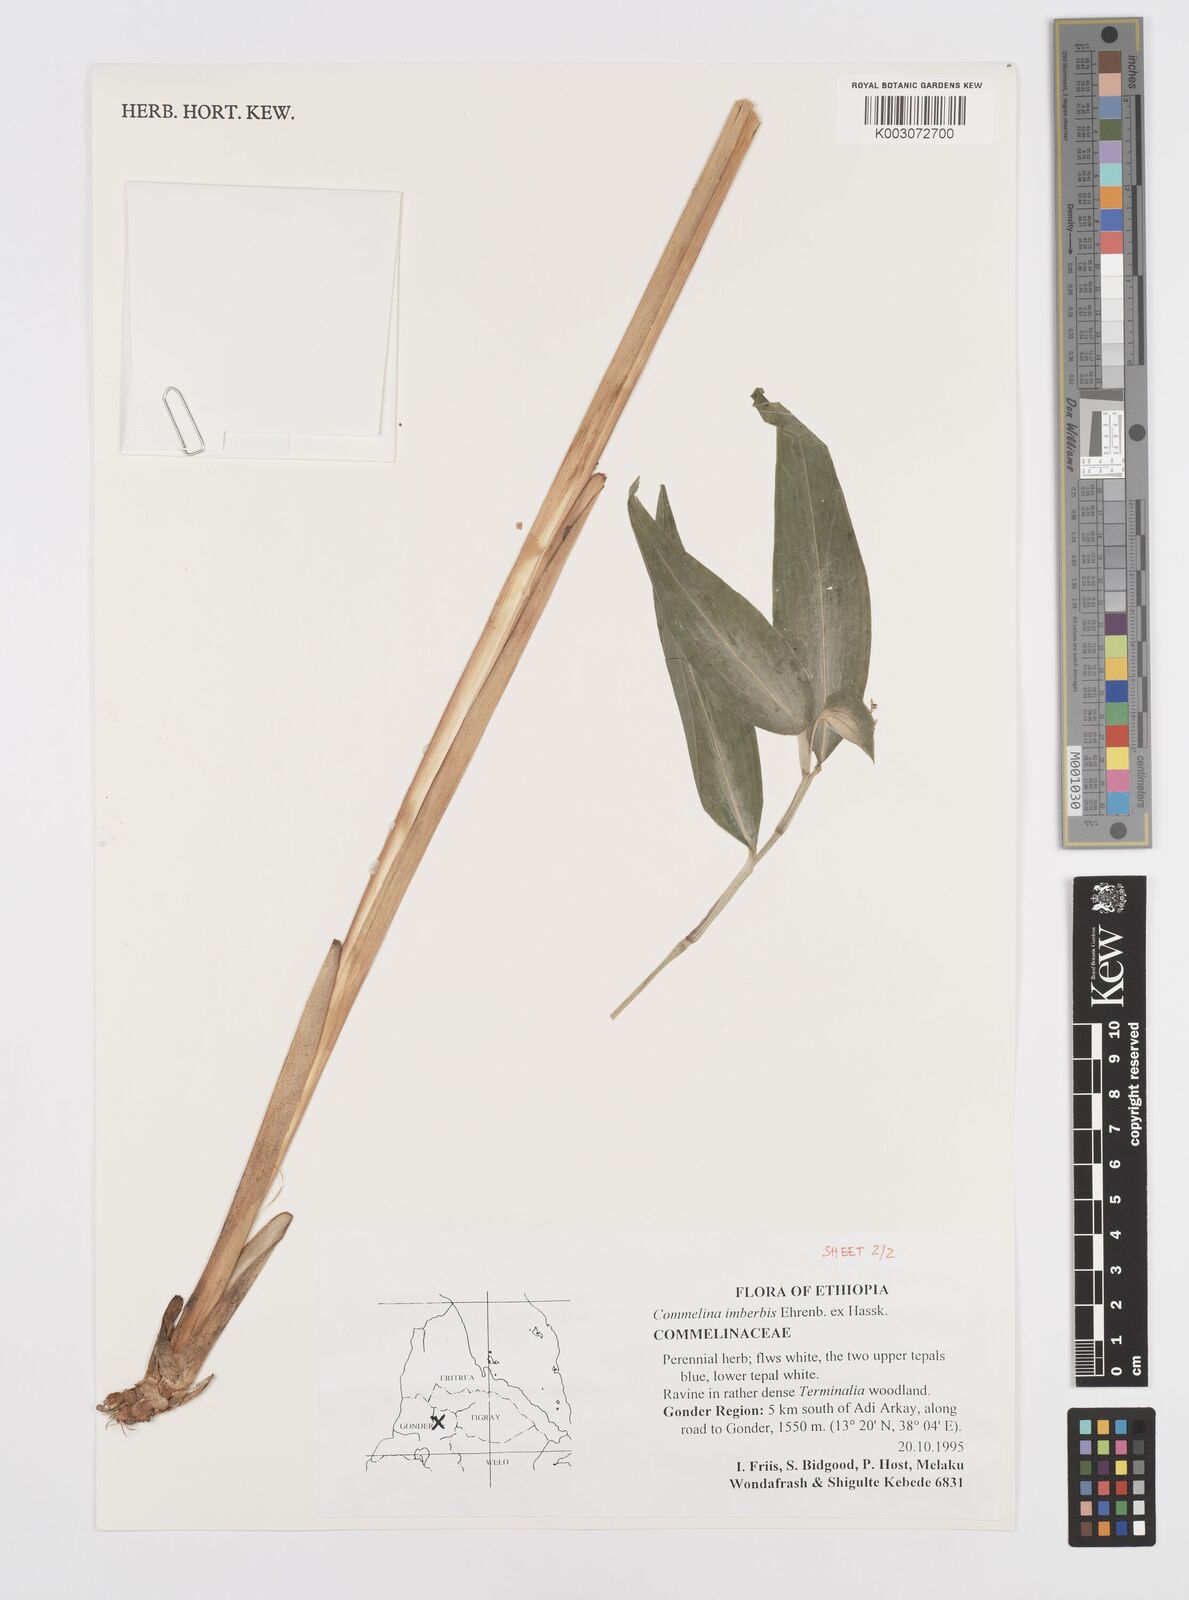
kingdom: Plantae
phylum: Tracheophyta
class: Liliopsida
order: Commelinales
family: Commelinaceae
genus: Commelina
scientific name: Commelina imberbis
